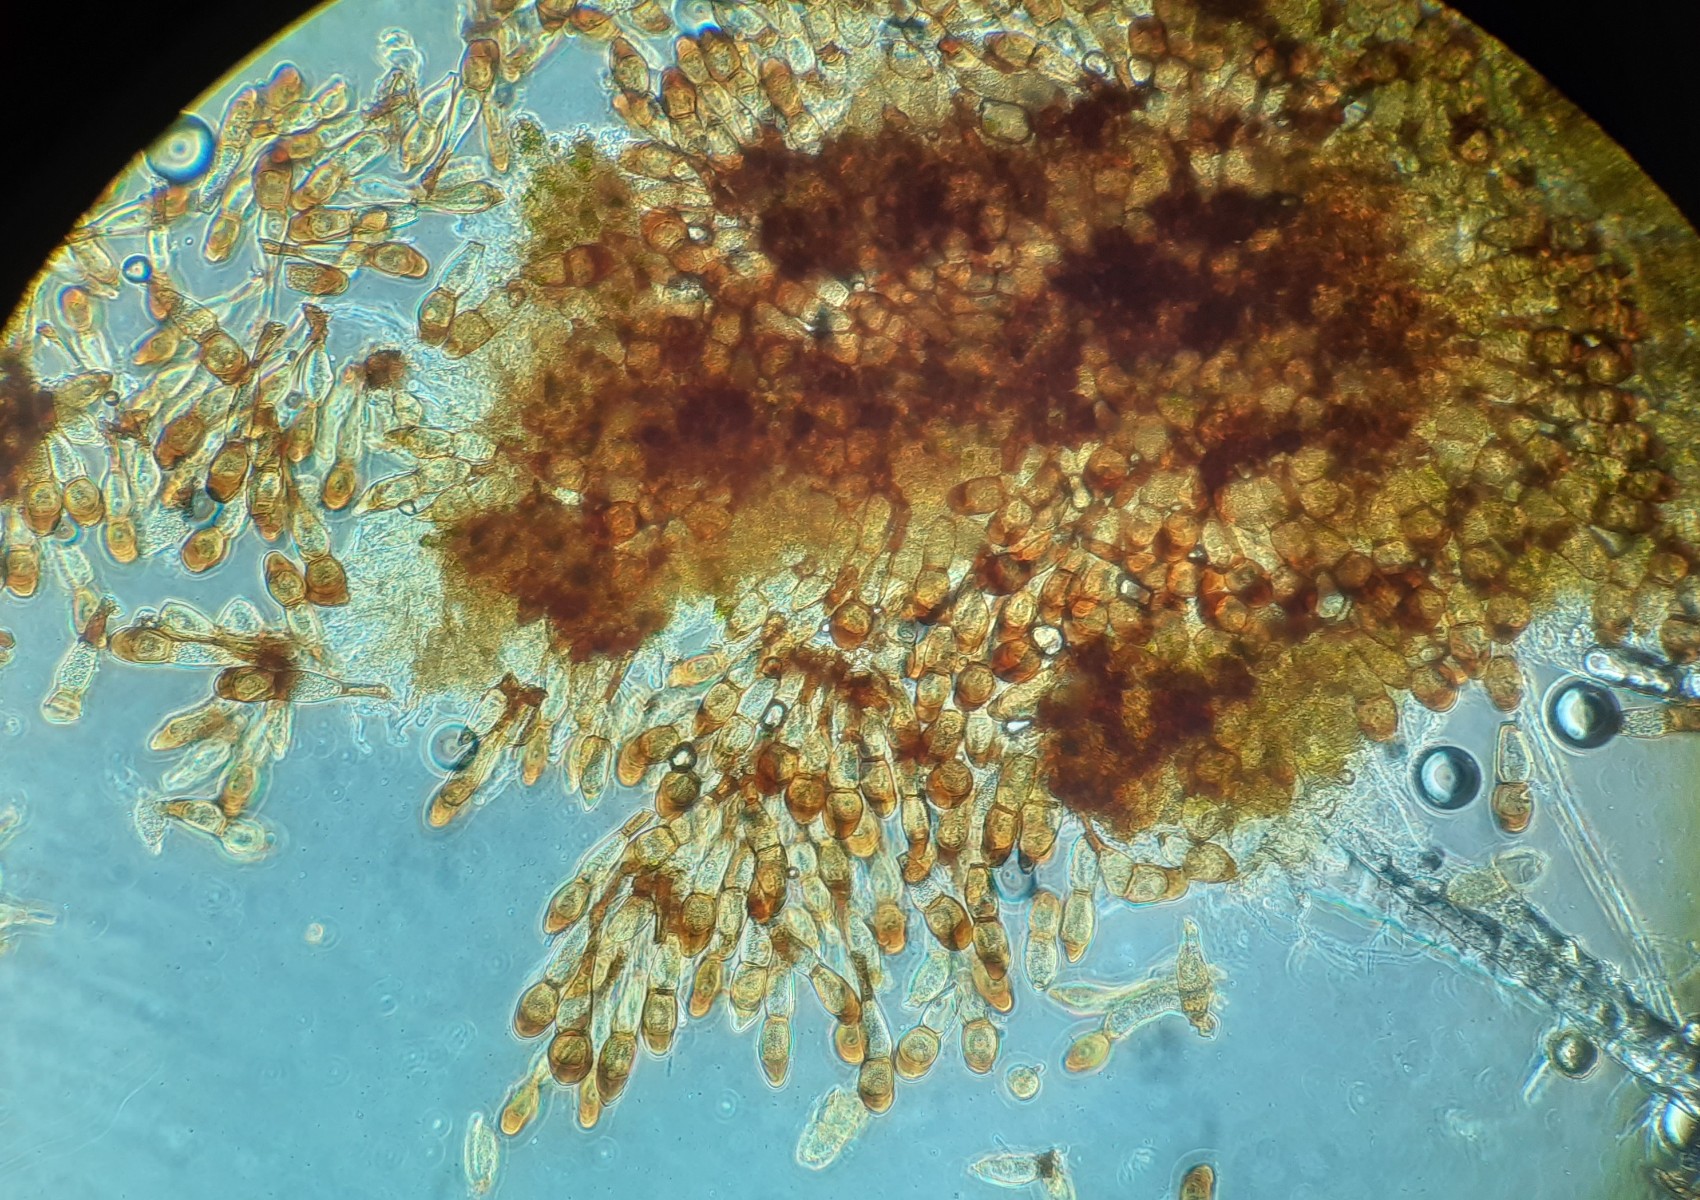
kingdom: Fungi
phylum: Basidiomycota
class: Pucciniomycetes
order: Pucciniales
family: Pucciniaceae
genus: Puccinia
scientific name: Puccinia urticata
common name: Nettle clustercup rust fungus
